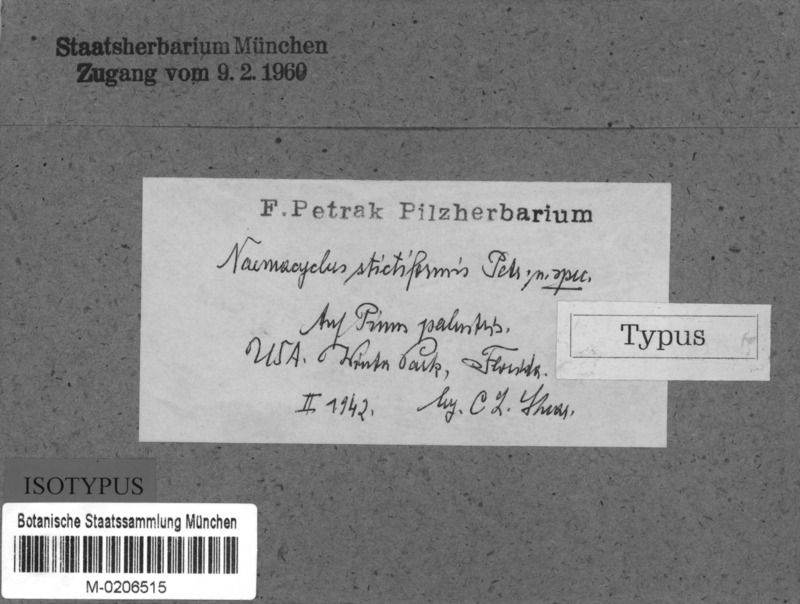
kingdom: Fungi
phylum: Ascomycota
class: Leotiomycetes
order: Chaetomellales
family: Marthamycetaceae
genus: Naemacyclus
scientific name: Naemacyclus stictiformis
